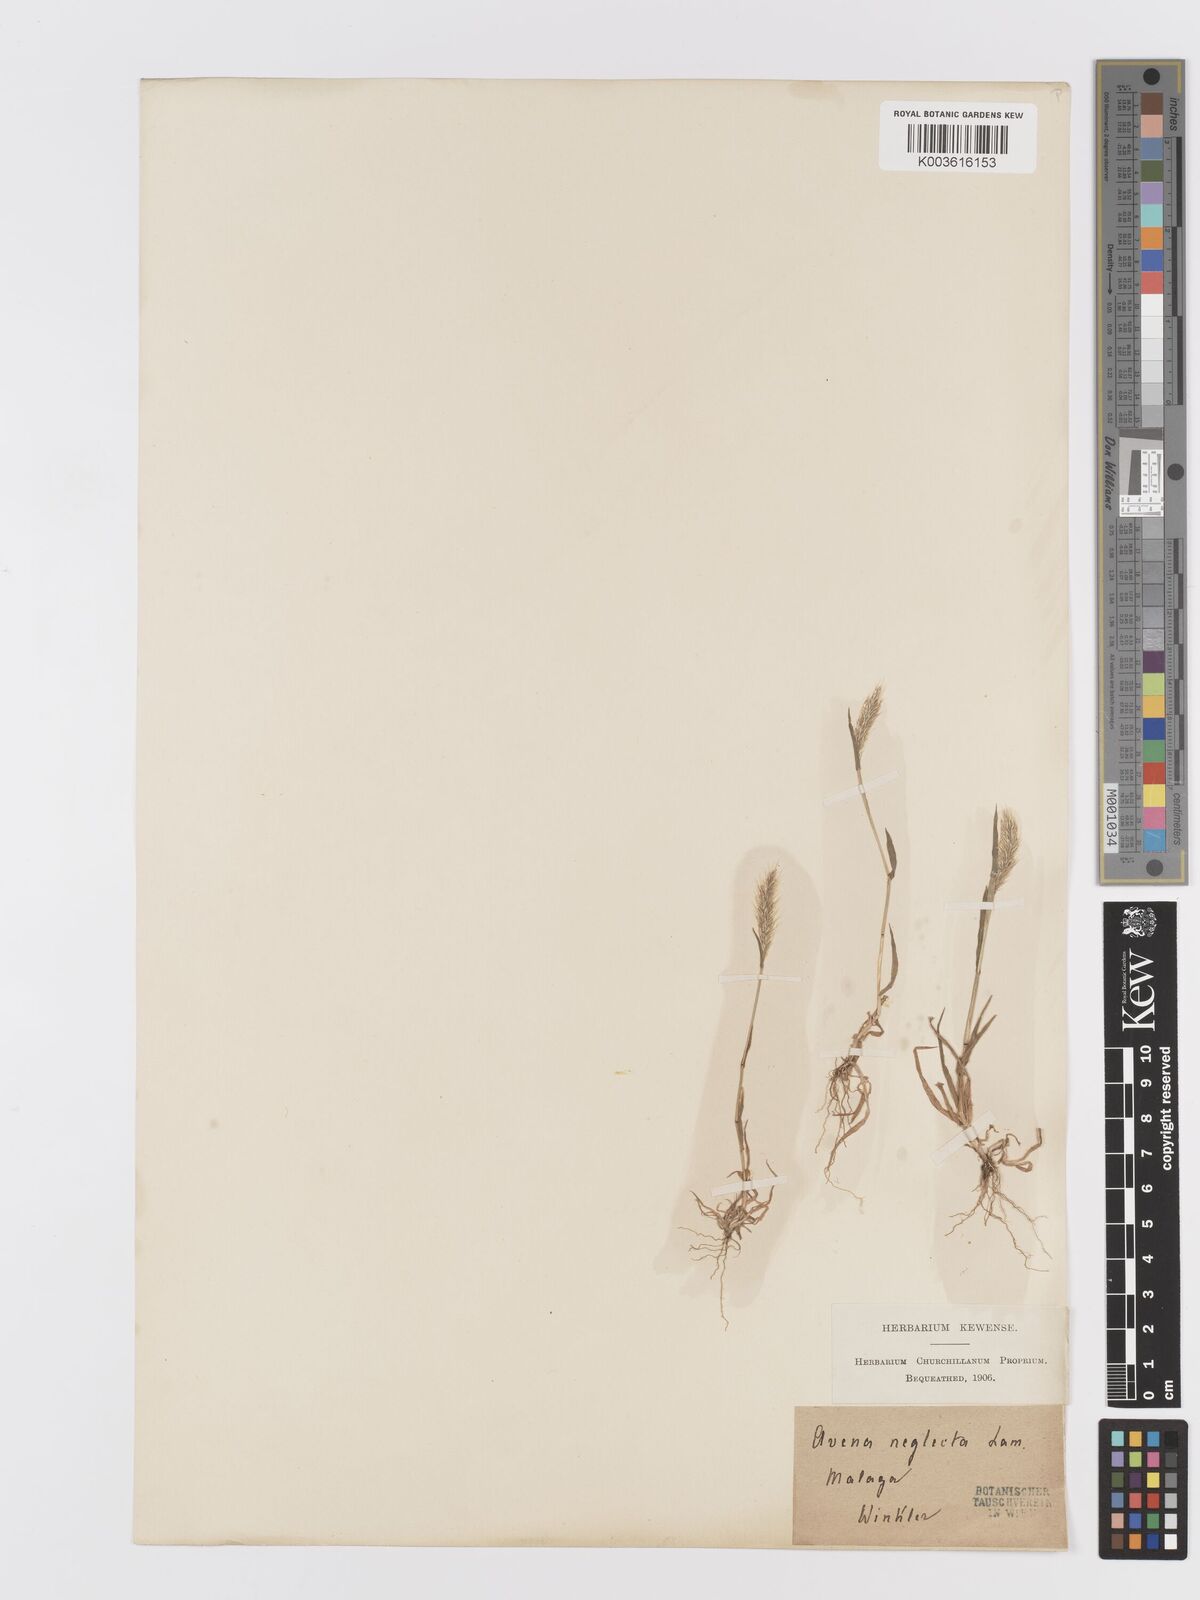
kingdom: Plantae
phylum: Tracheophyta
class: Liliopsida
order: Poales
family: Poaceae
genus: Trisetaria
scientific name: Trisetaria panicea
